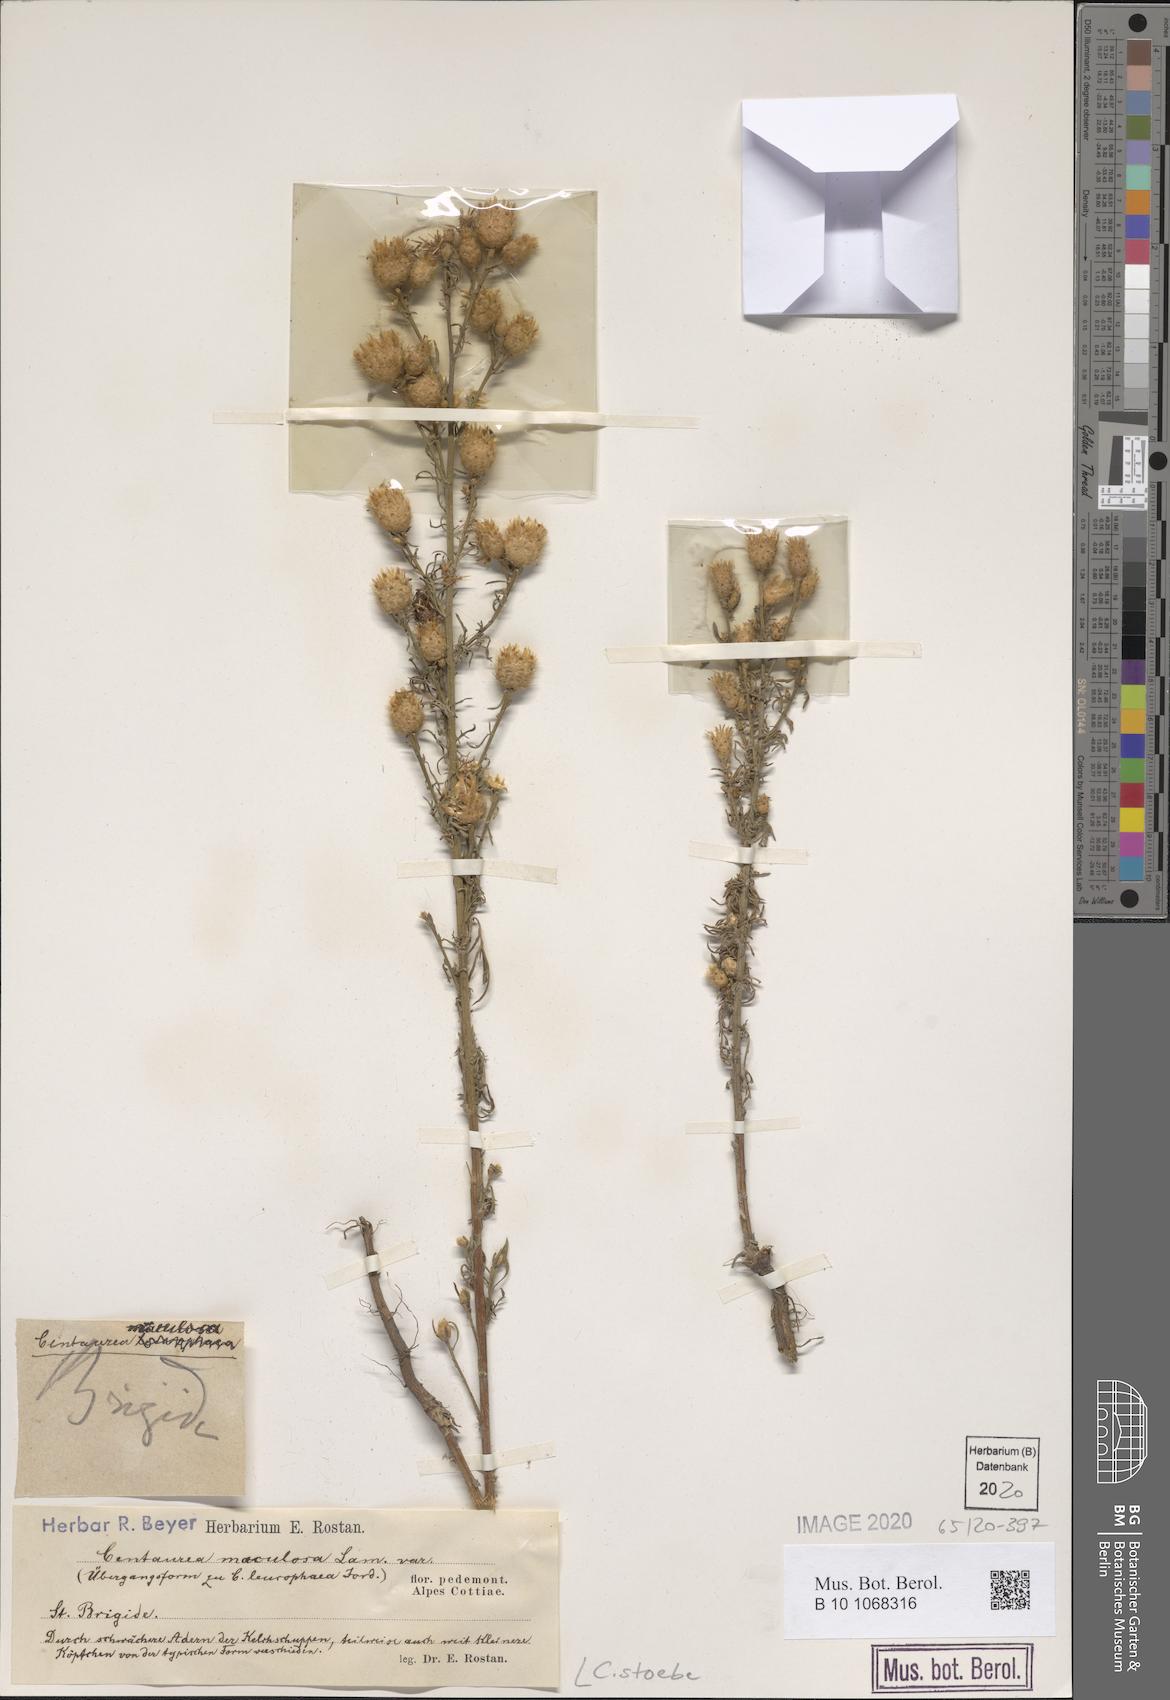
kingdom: Plantae
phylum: Tracheophyta
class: Magnoliopsida
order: Asterales
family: Asteraceae
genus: Centaurea
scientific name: Centaurea stoebe
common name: Spotted knapweed
